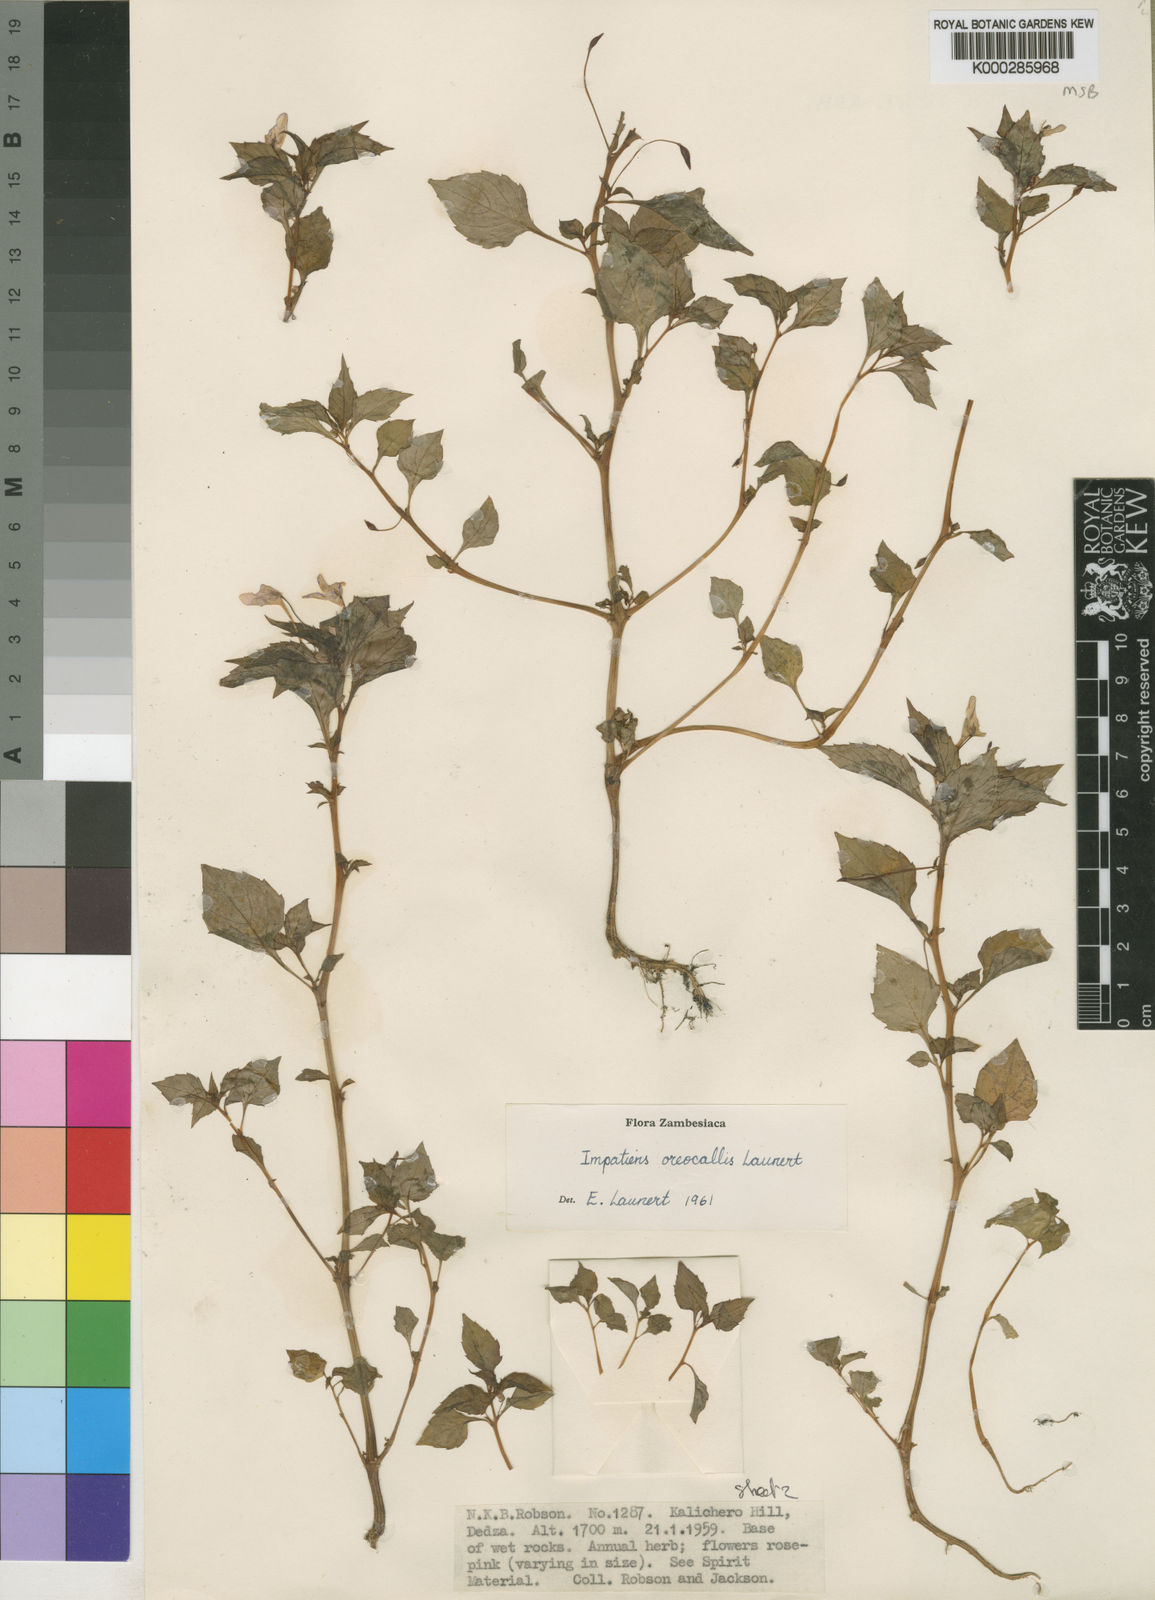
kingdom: Plantae
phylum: Tracheophyta
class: Magnoliopsida
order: Ericales
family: Balsaminaceae
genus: Impatiens
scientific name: Impatiens oreocallis
